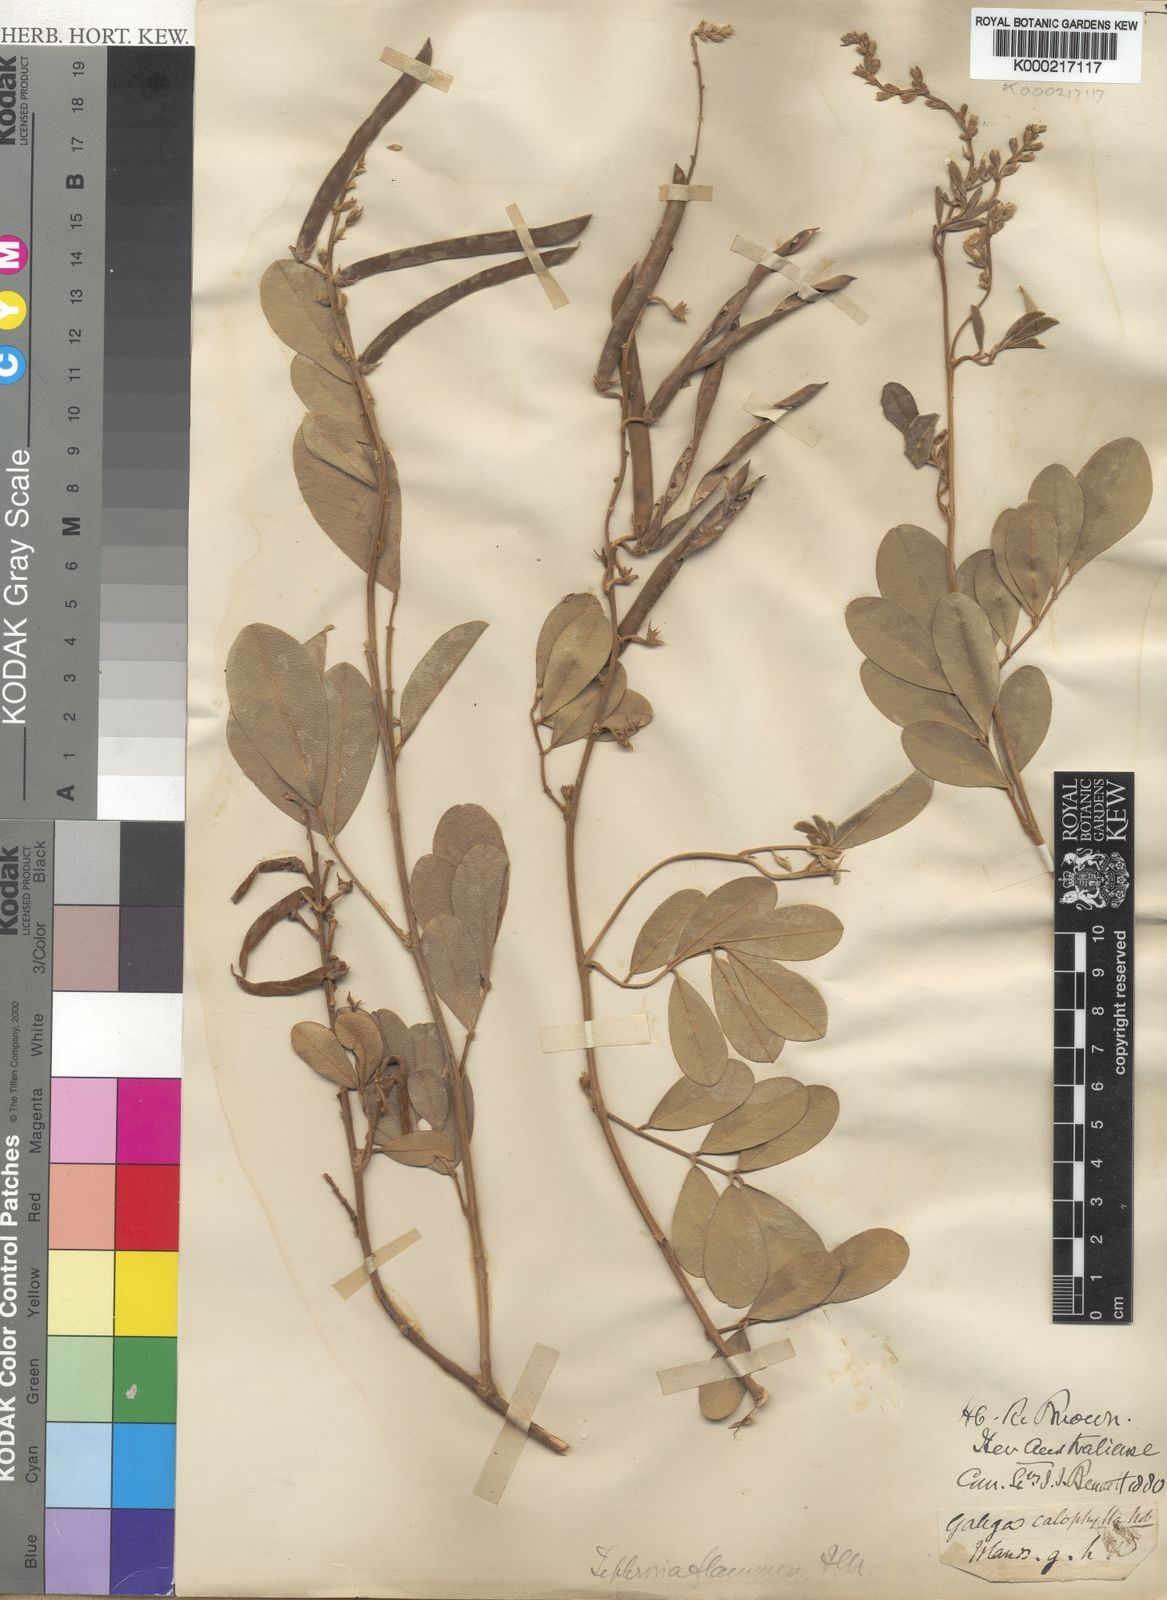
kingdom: Plantae
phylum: Tracheophyta
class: Magnoliopsida
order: Fabales
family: Fabaceae
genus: Tephrosia
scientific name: Tephrosia flammea
